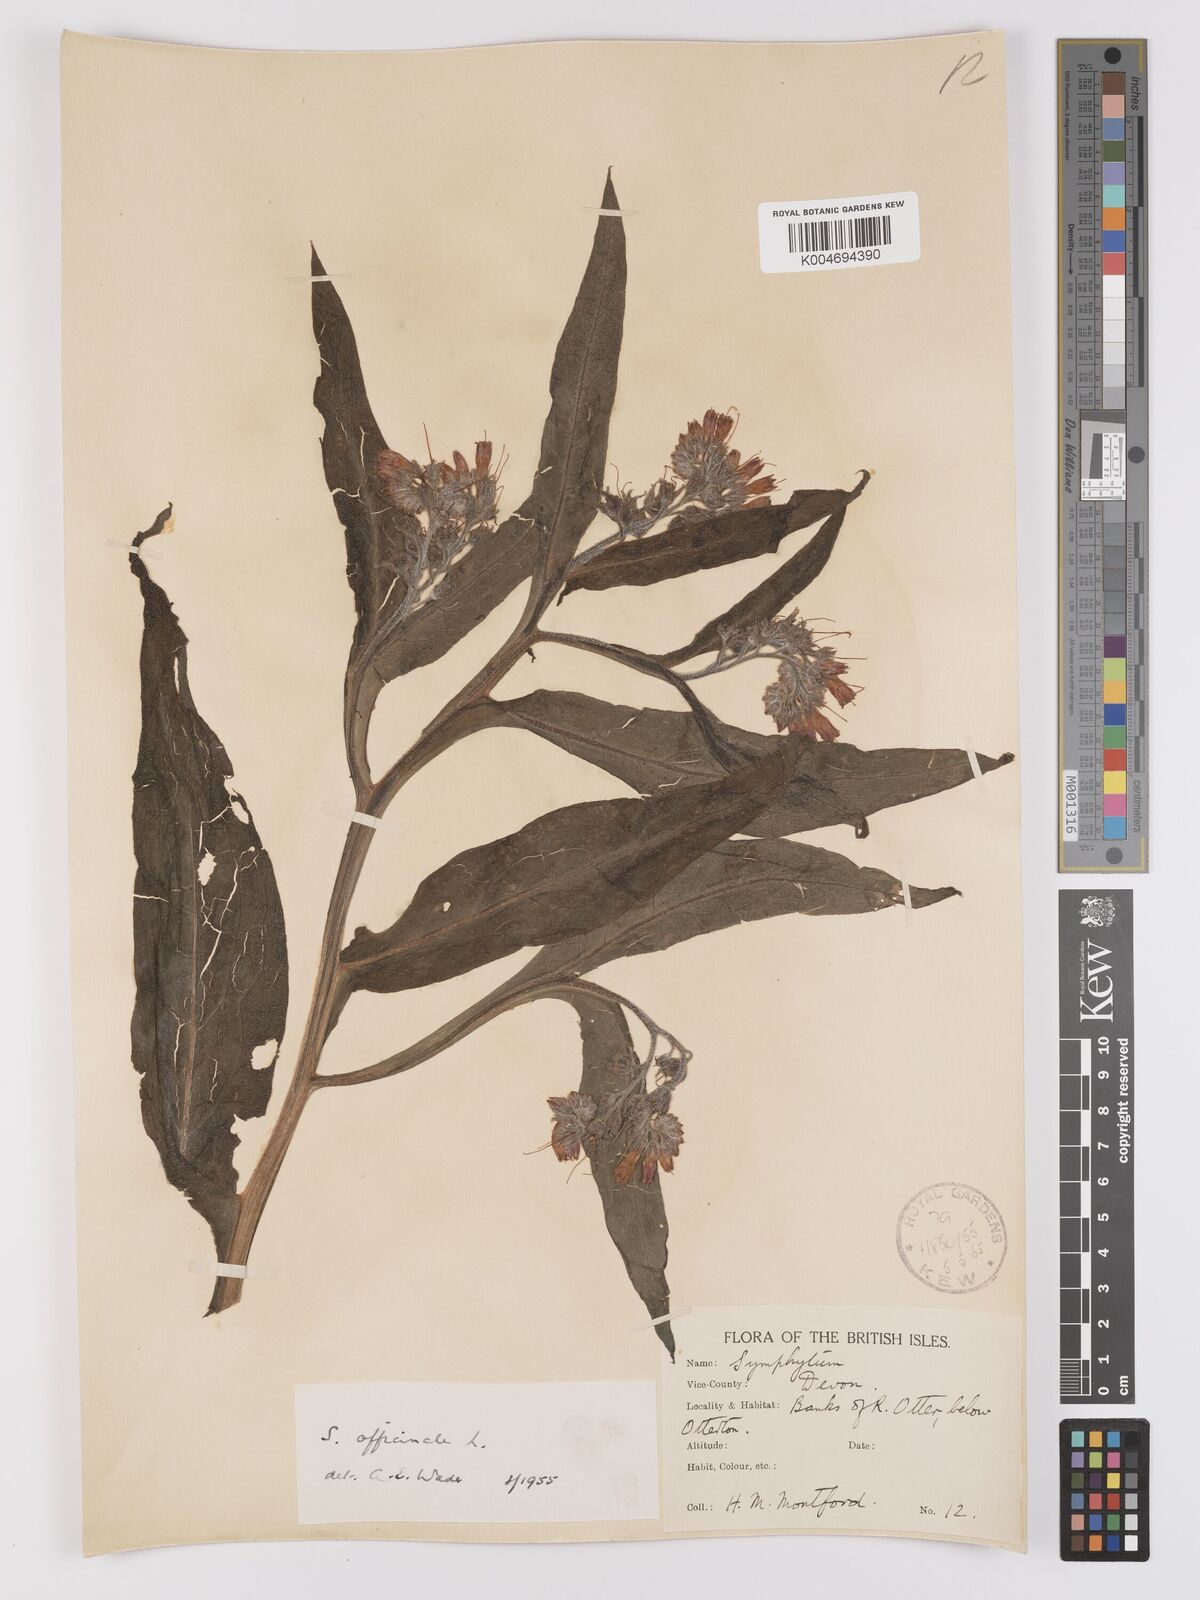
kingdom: Plantae
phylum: Tracheophyta
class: Magnoliopsida
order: Boraginales
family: Boraginaceae
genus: Symphytum
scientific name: Symphytum officinale
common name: Common comfrey
